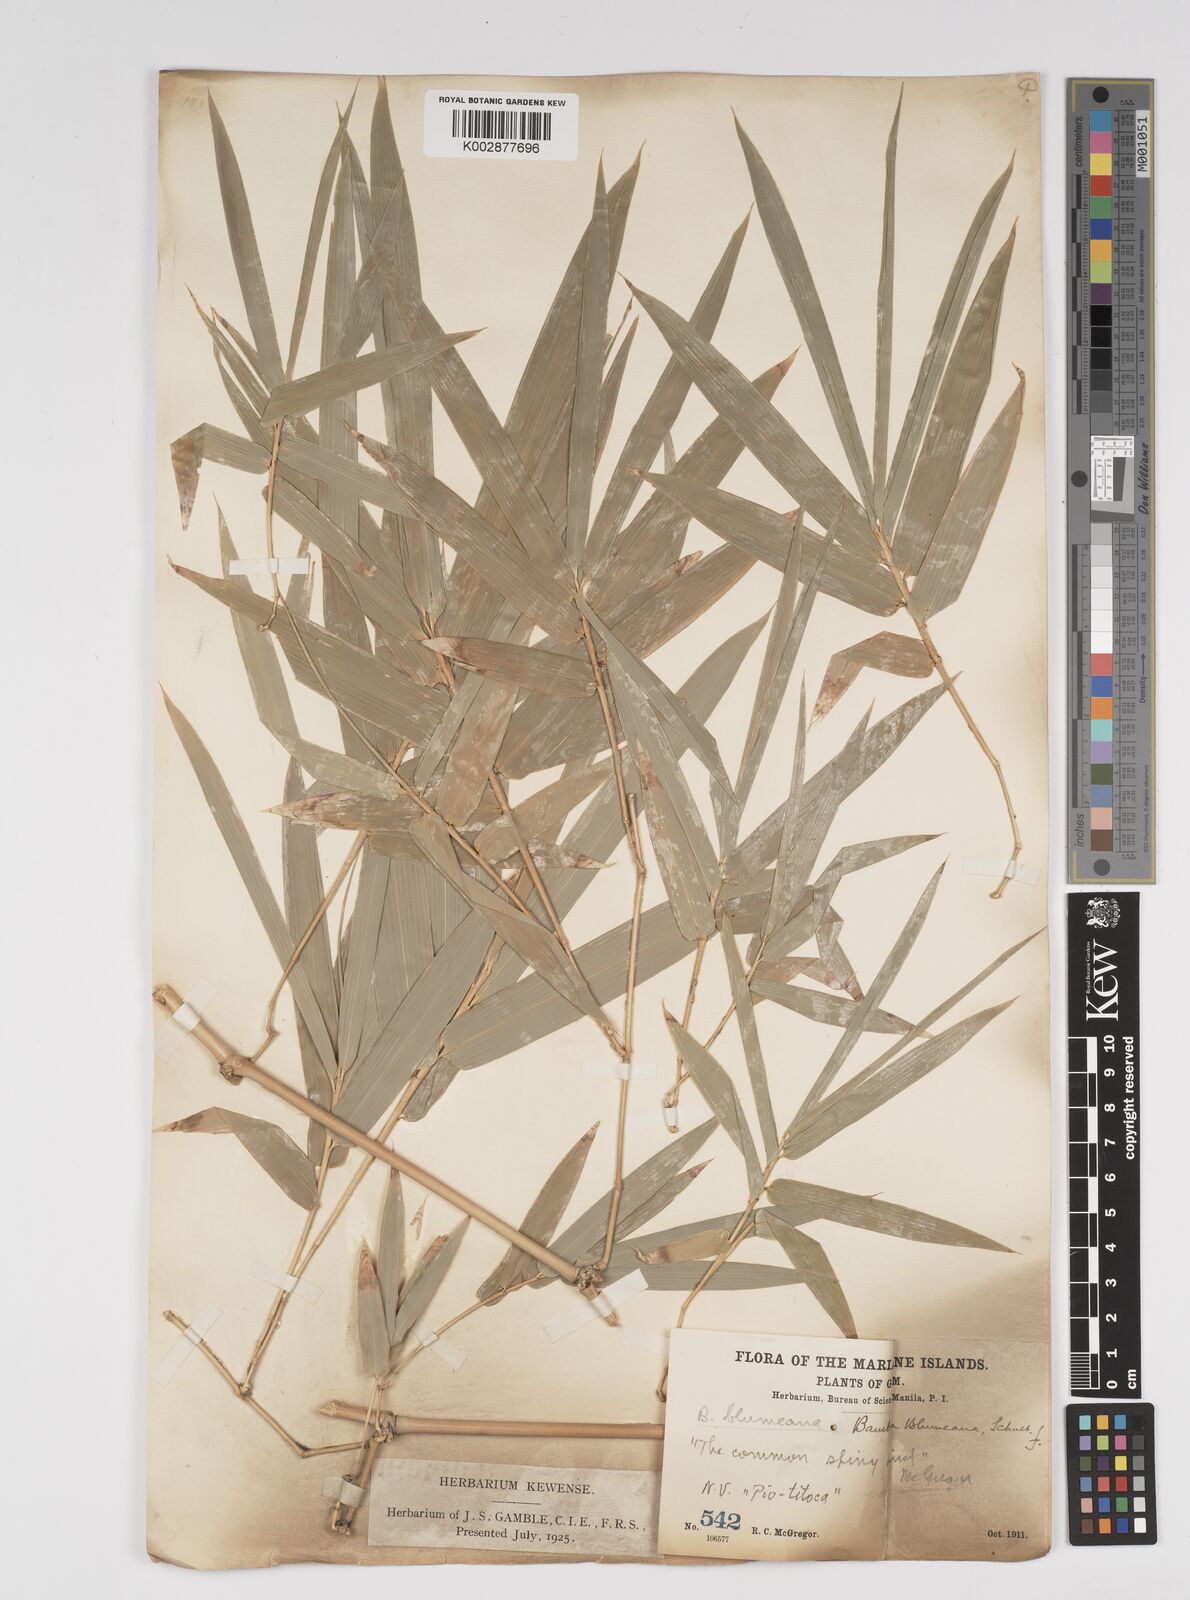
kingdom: Plantae
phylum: Tracheophyta
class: Liliopsida
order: Poales
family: Poaceae
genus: Bambusa
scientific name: Bambusa spinosa
